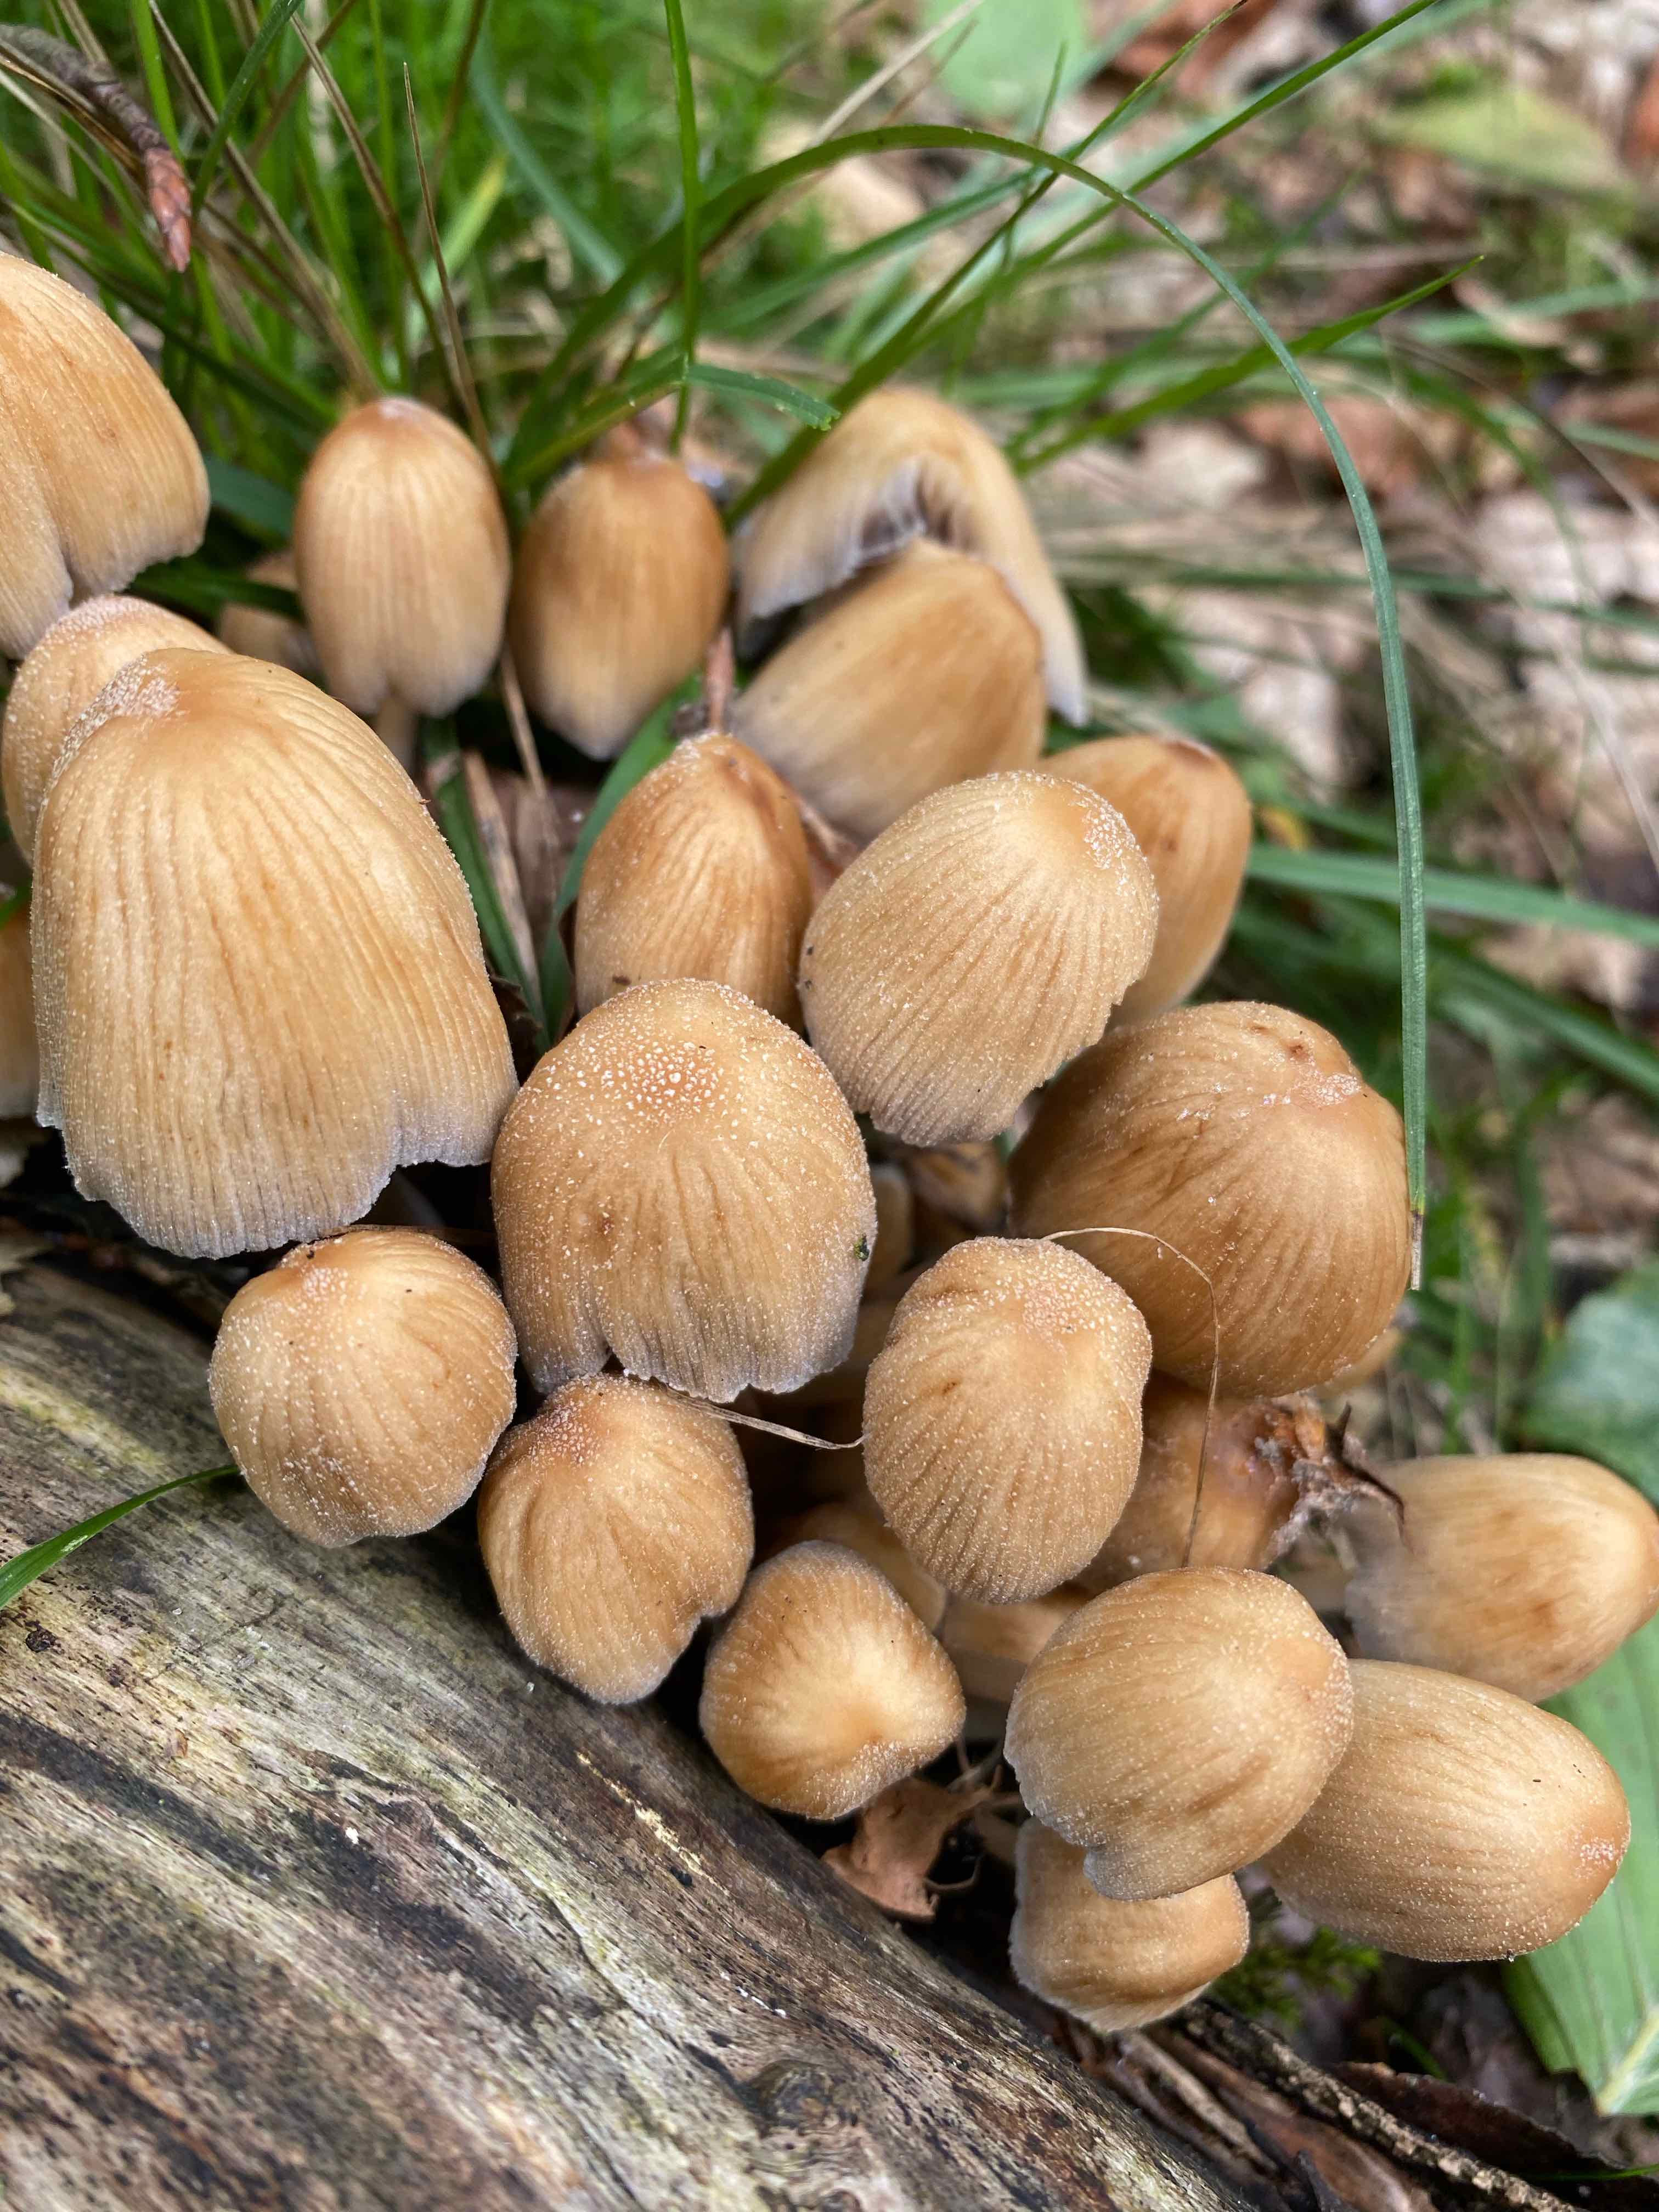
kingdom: Fungi
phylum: Basidiomycota
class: Agaricomycetes
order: Agaricales
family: Psathyrellaceae
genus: Coprinellus
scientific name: Coprinellus micaceus
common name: glimmer-blækhat
